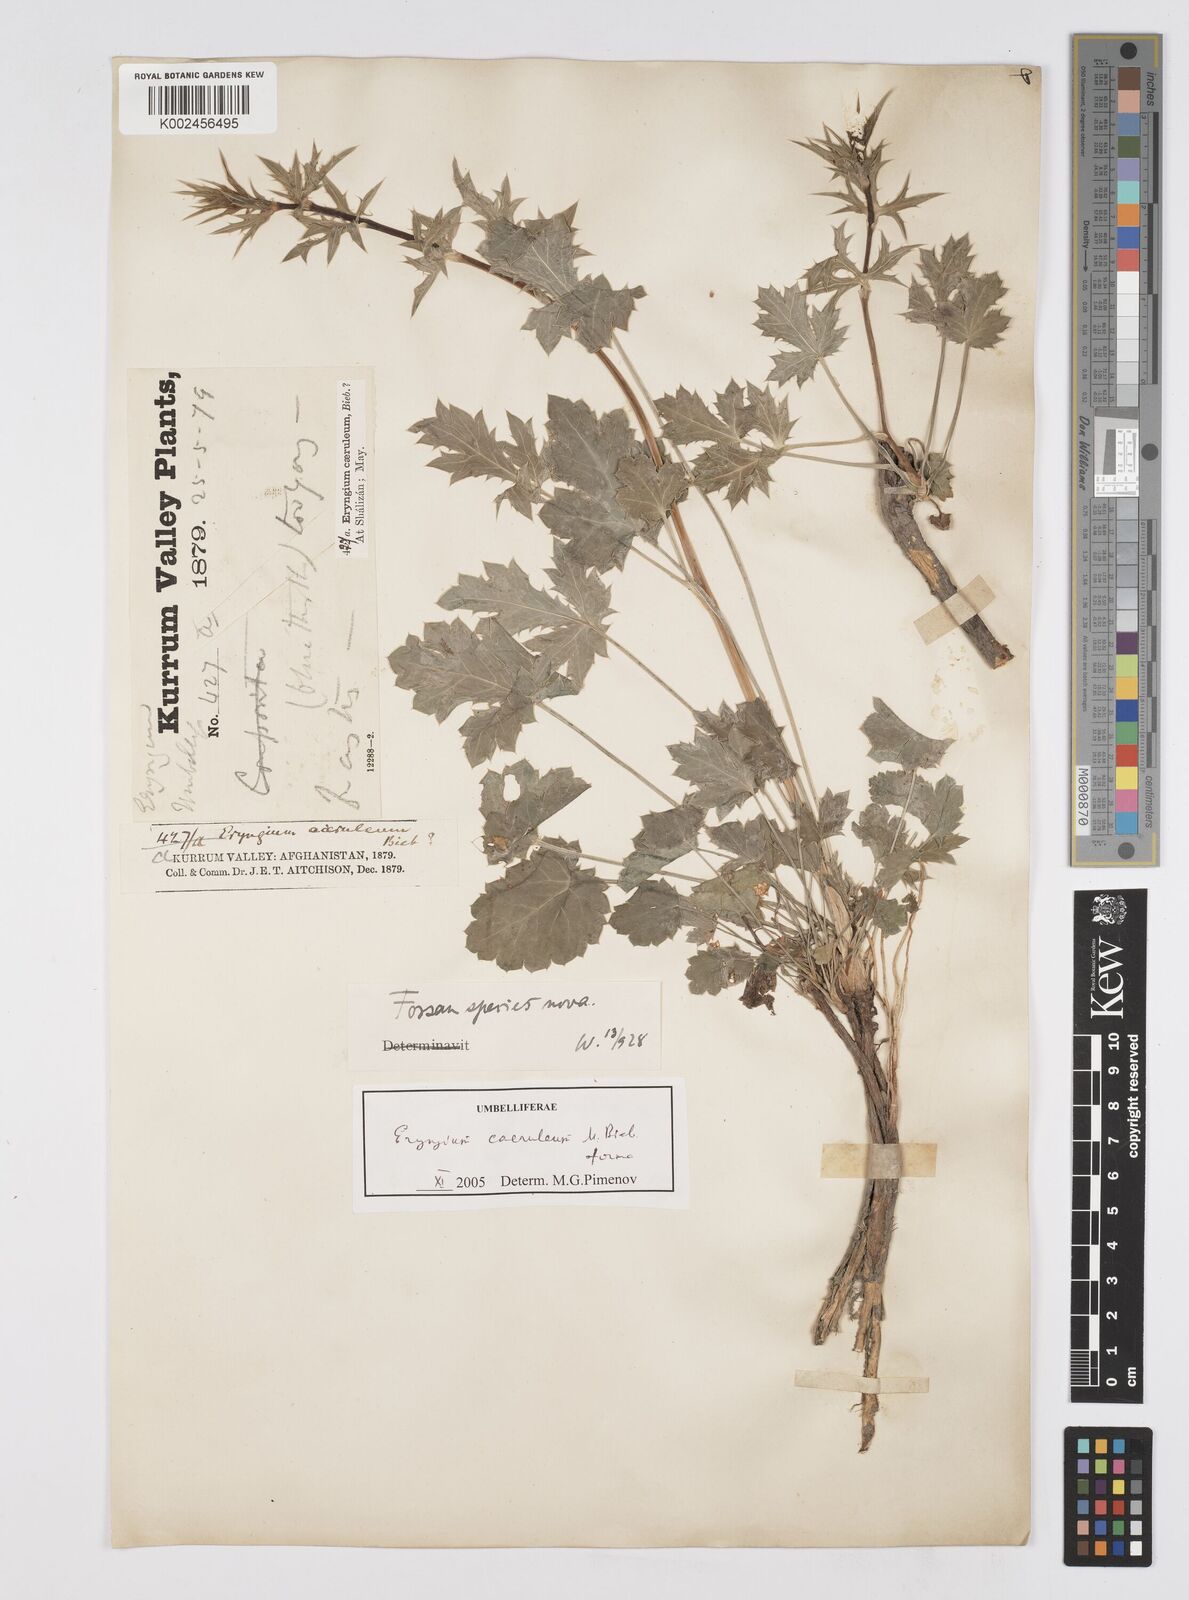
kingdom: Plantae
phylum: Tracheophyta
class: Magnoliopsida
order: Apiales
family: Apiaceae
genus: Eryngium
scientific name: Eryngium
